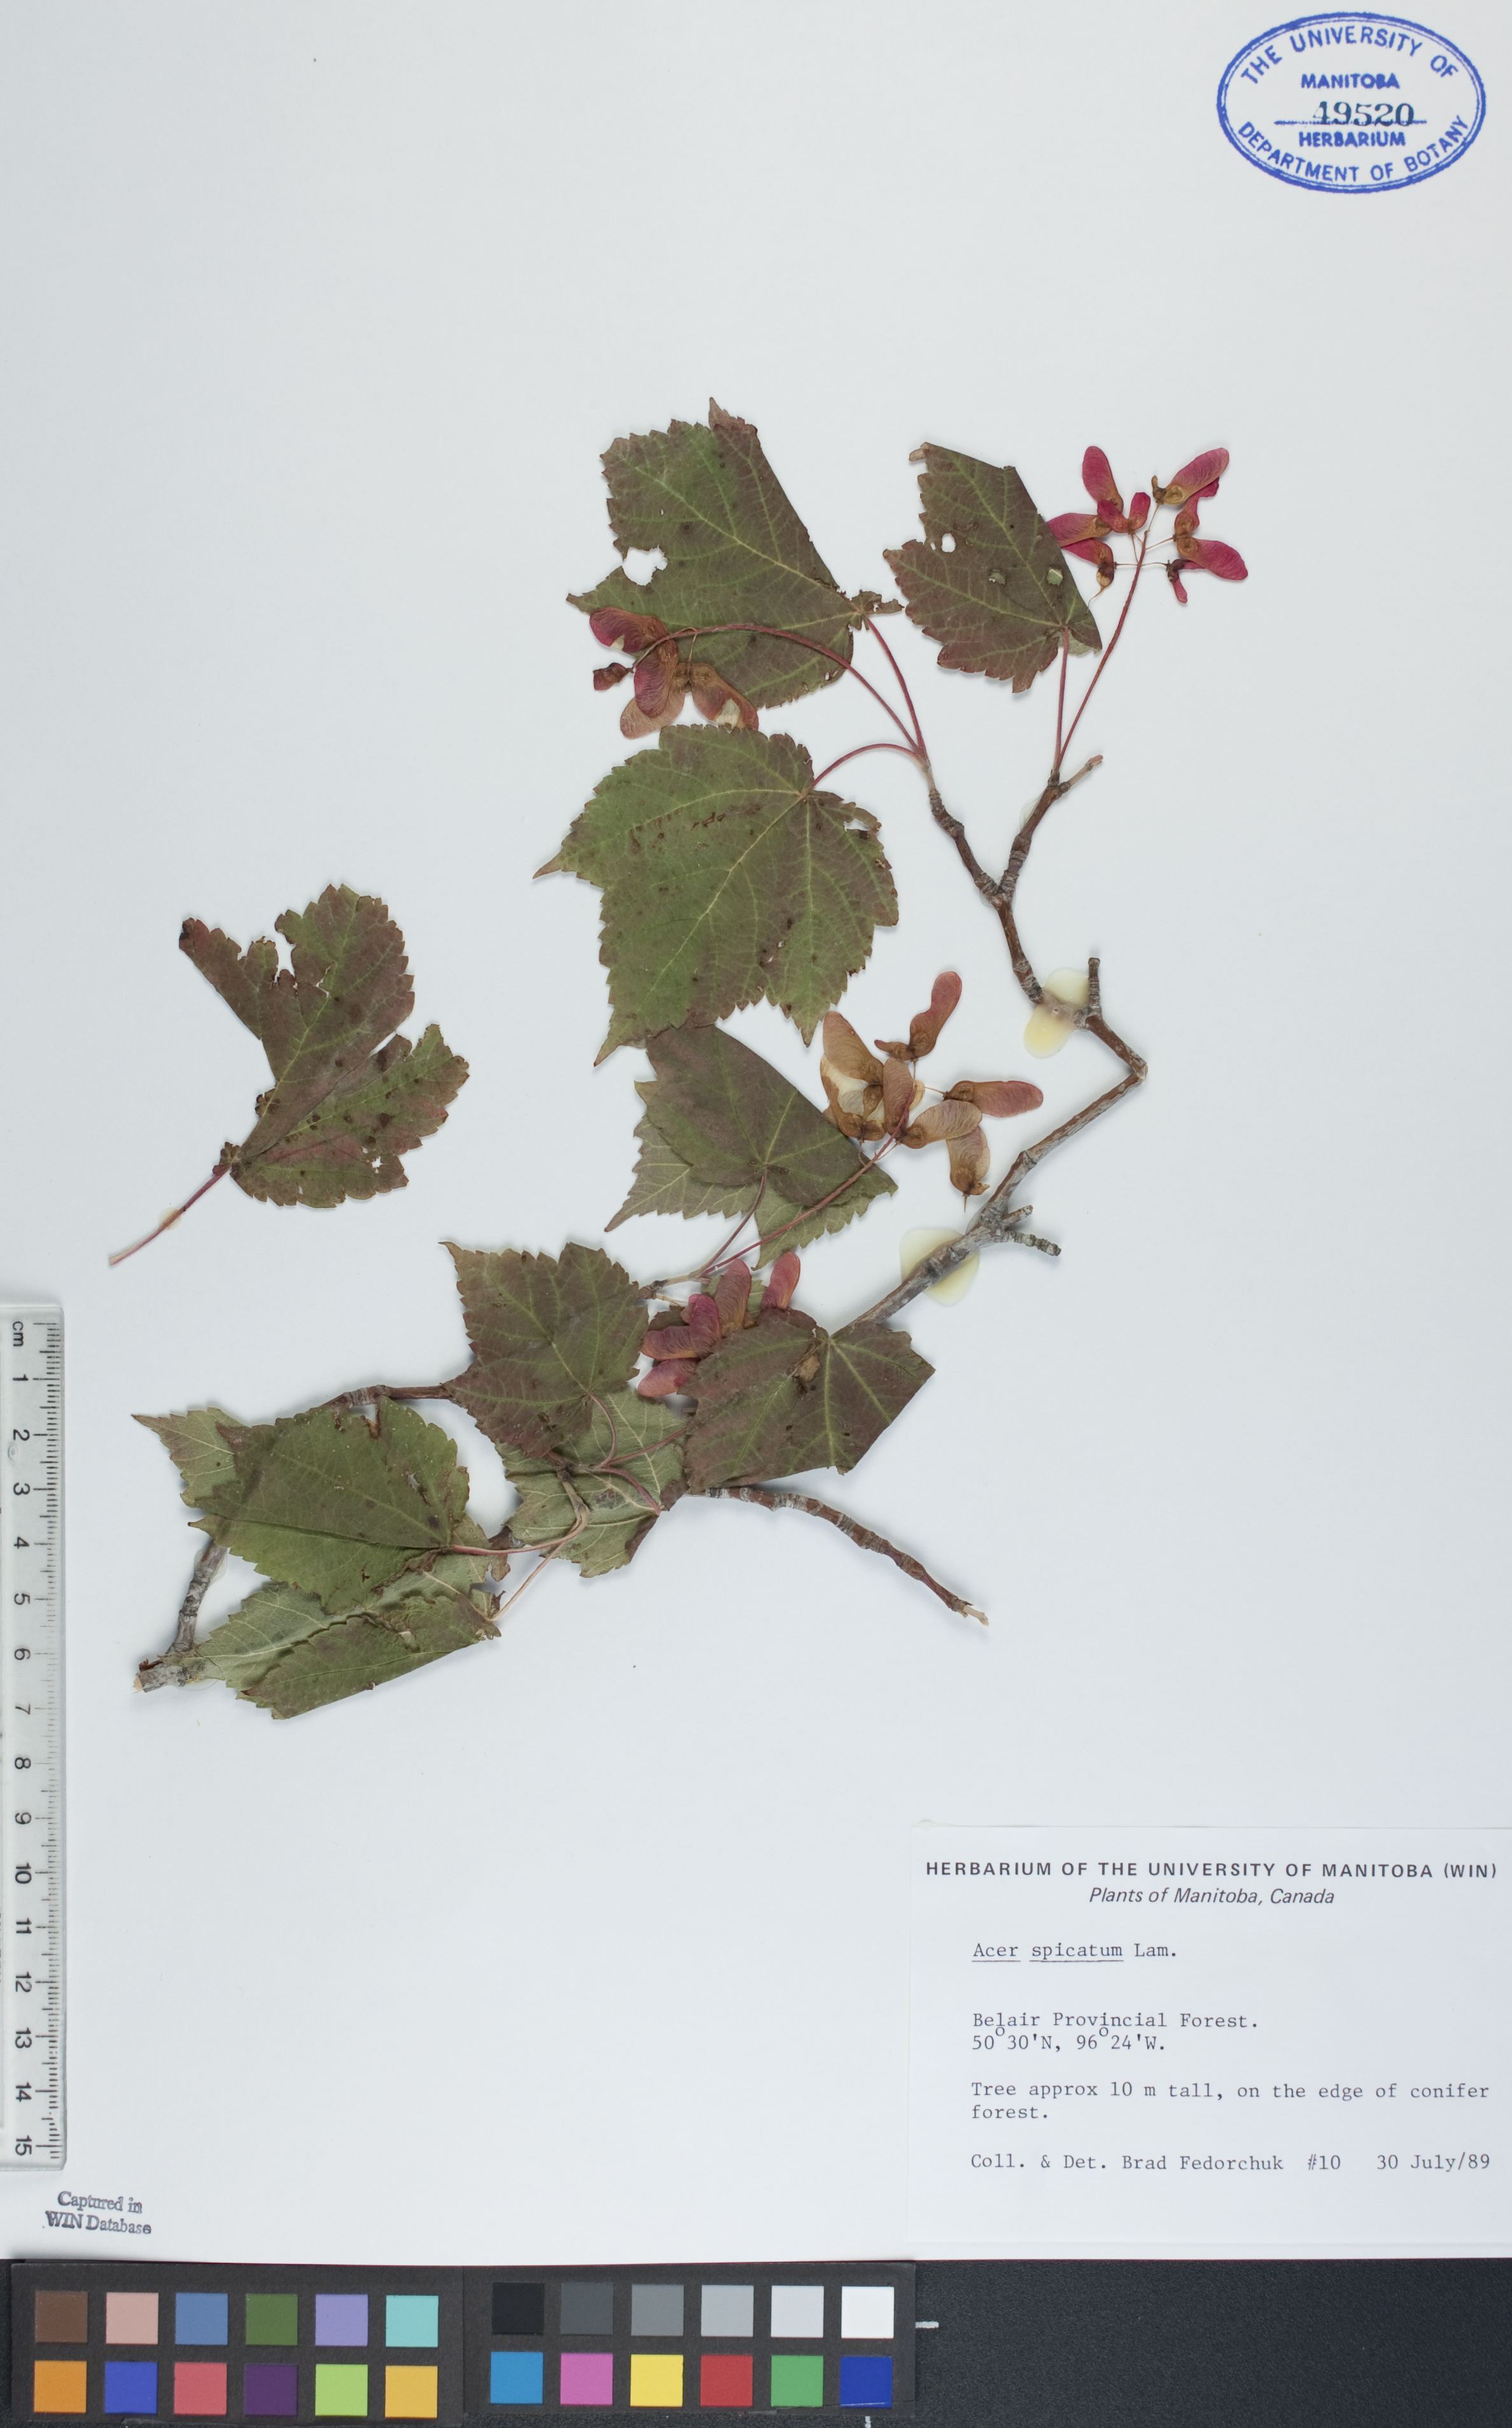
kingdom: Plantae
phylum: Tracheophyta
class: Magnoliopsida
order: Sapindales
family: Sapindaceae
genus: Acer
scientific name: Acer spicatum
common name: Mountain maple
